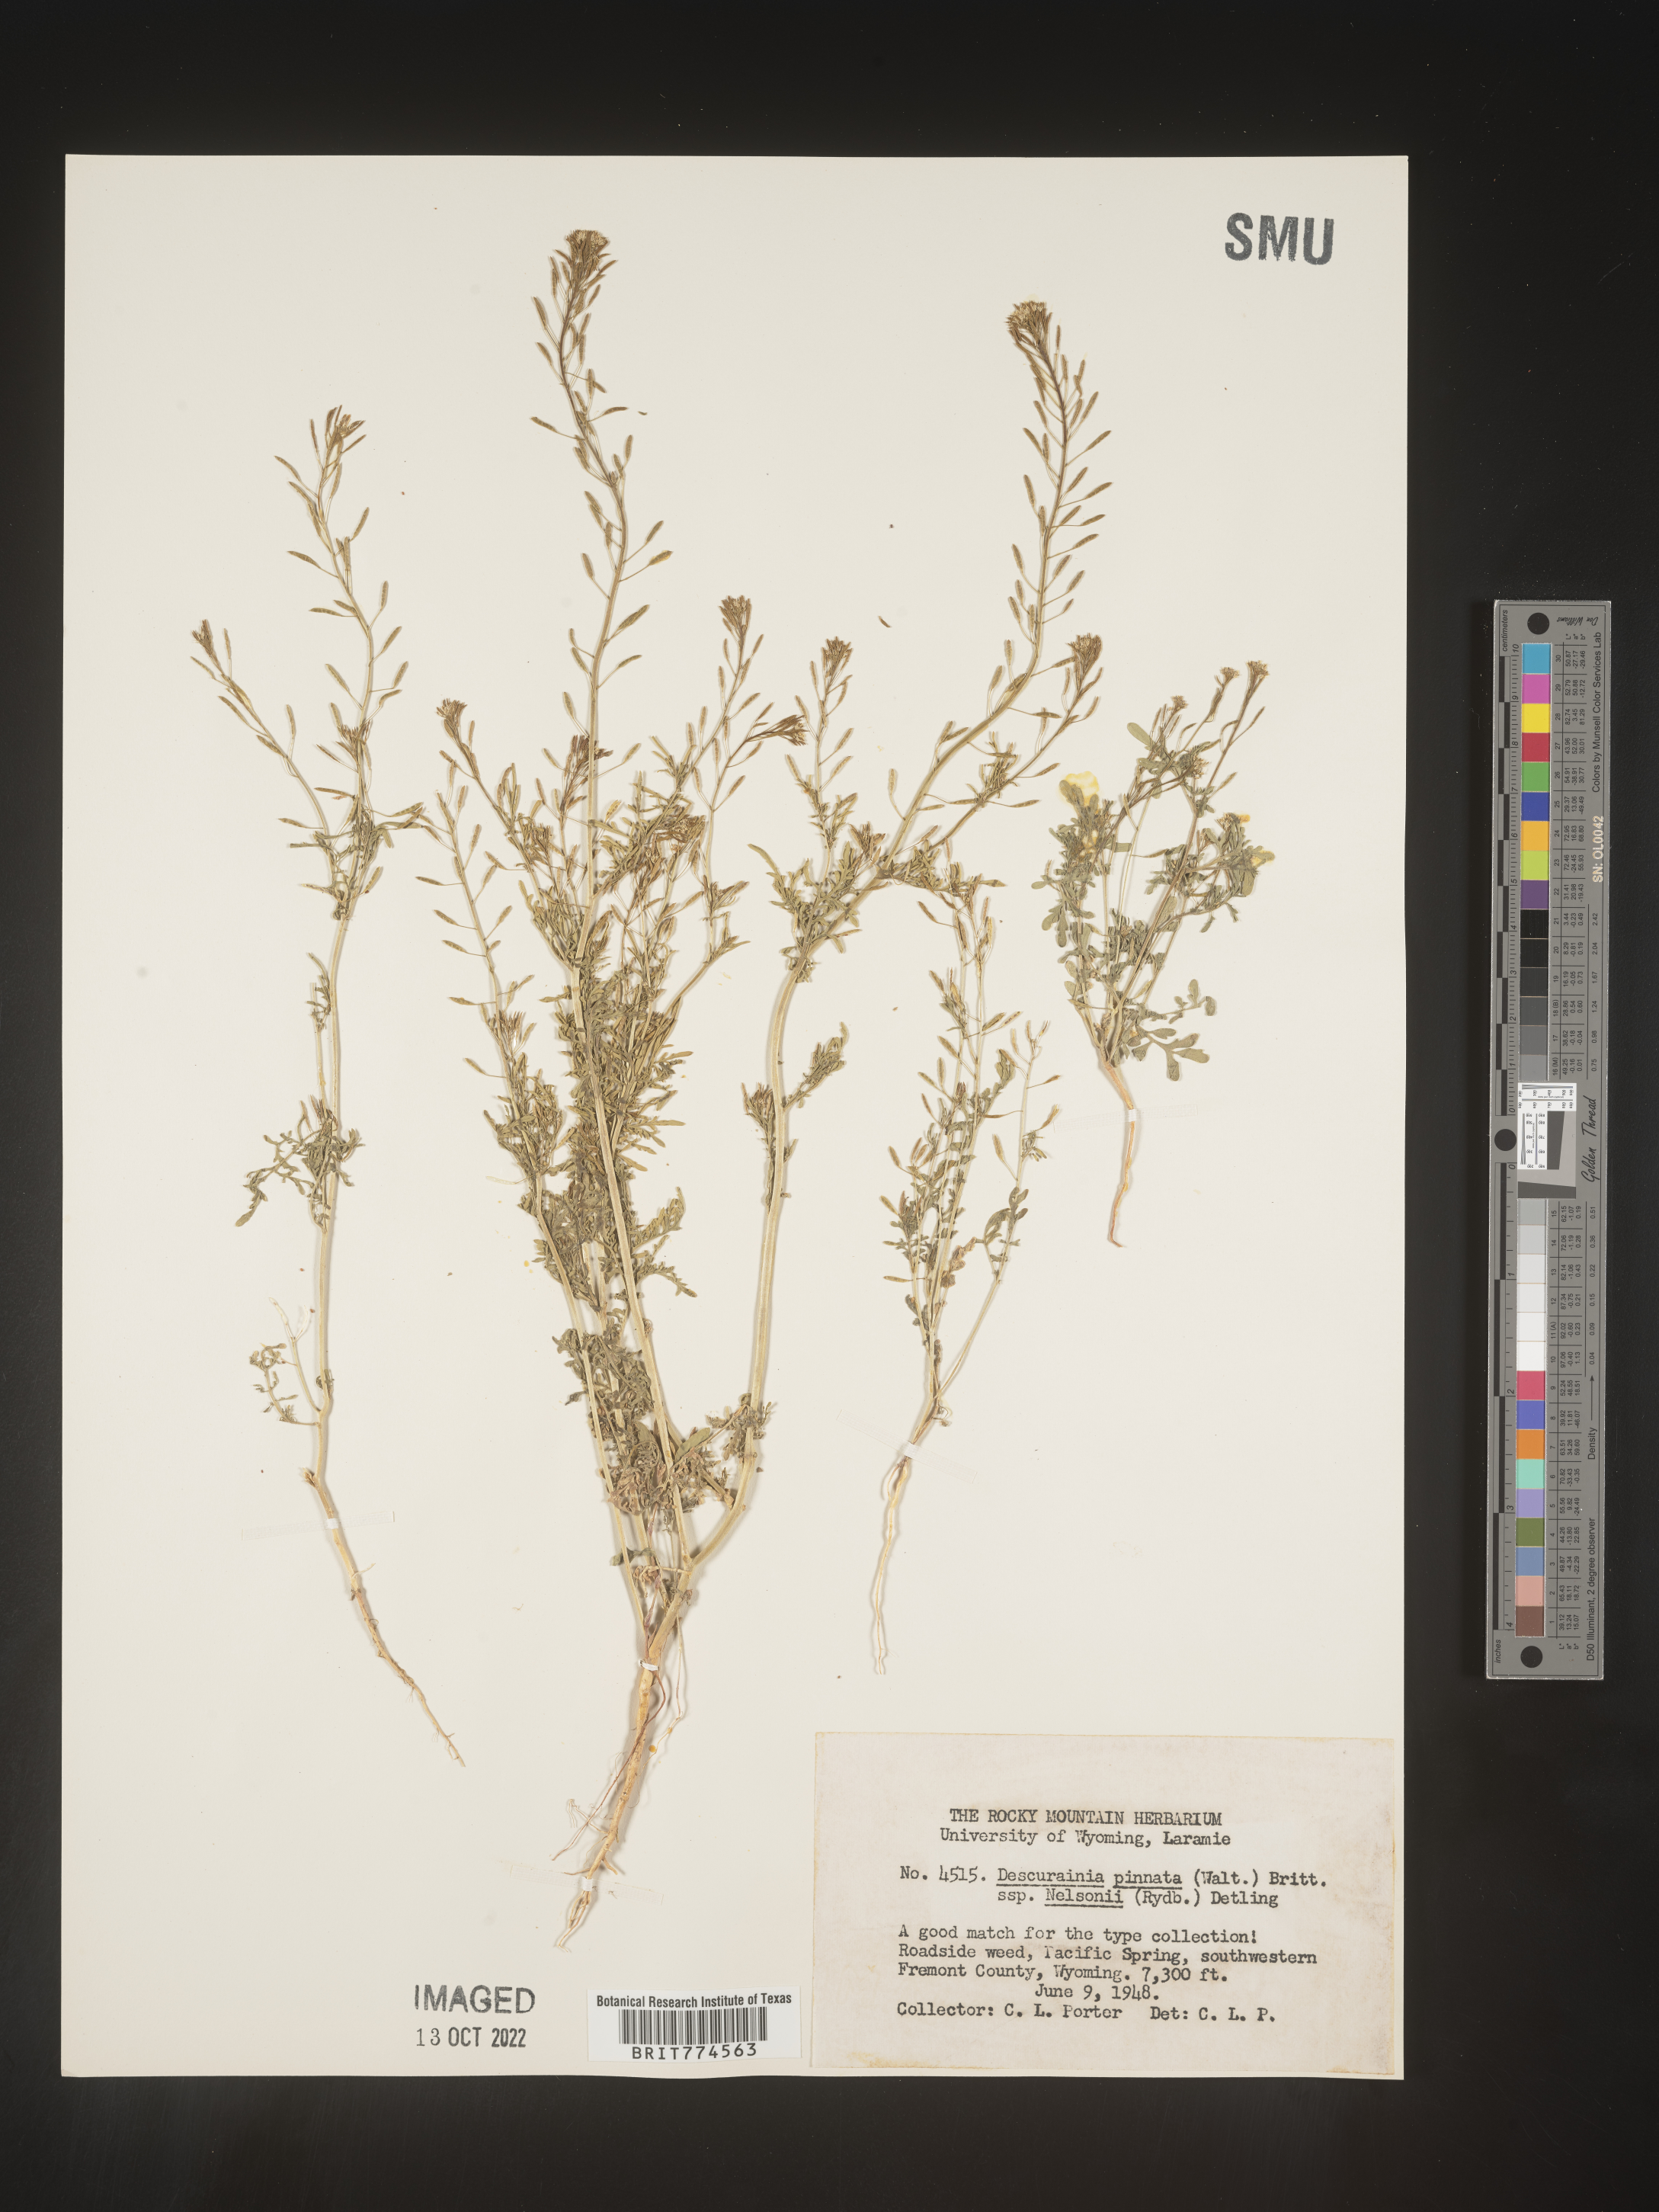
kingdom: Plantae
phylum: Tracheophyta
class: Magnoliopsida
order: Brassicales
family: Brassicaceae
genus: Descurainia
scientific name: Descurainia pinnata
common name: Western tansy mustard
